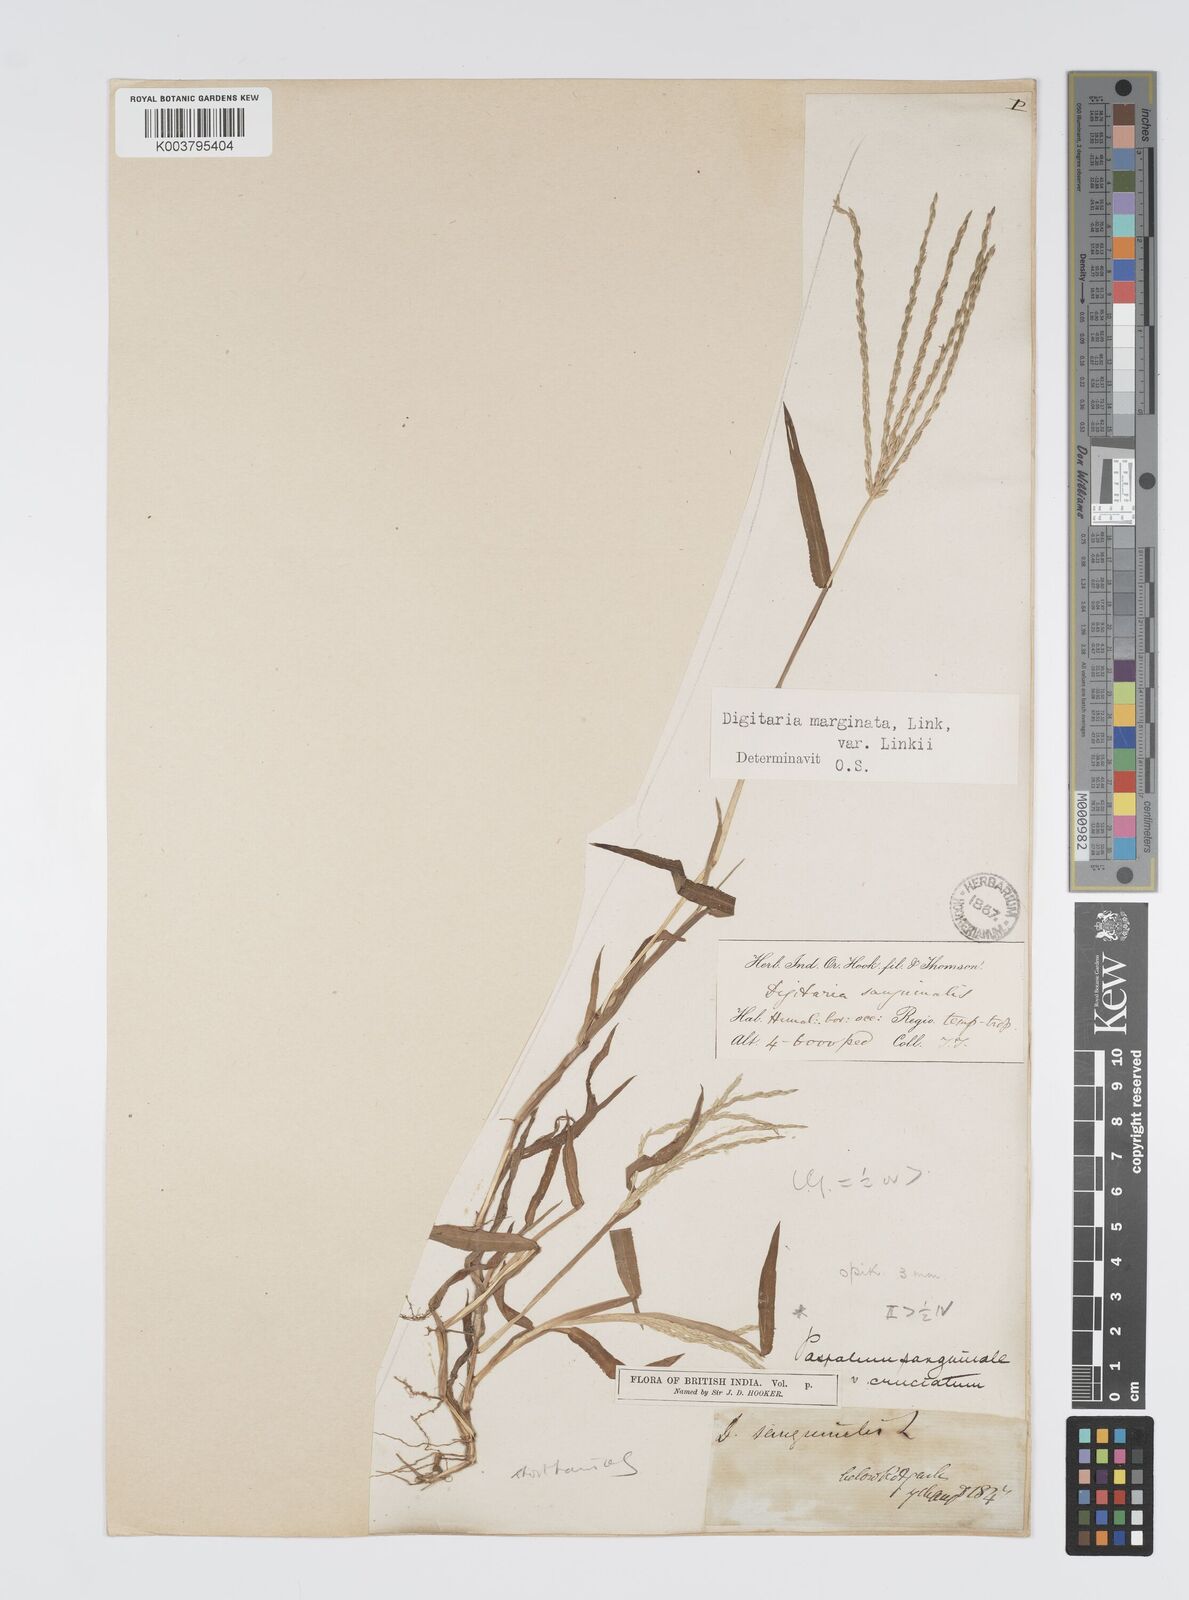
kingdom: Plantae
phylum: Tracheophyta
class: Liliopsida
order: Poales
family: Poaceae
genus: Digitaria
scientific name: Digitaria ciliaris
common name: Tropical finger-grass
